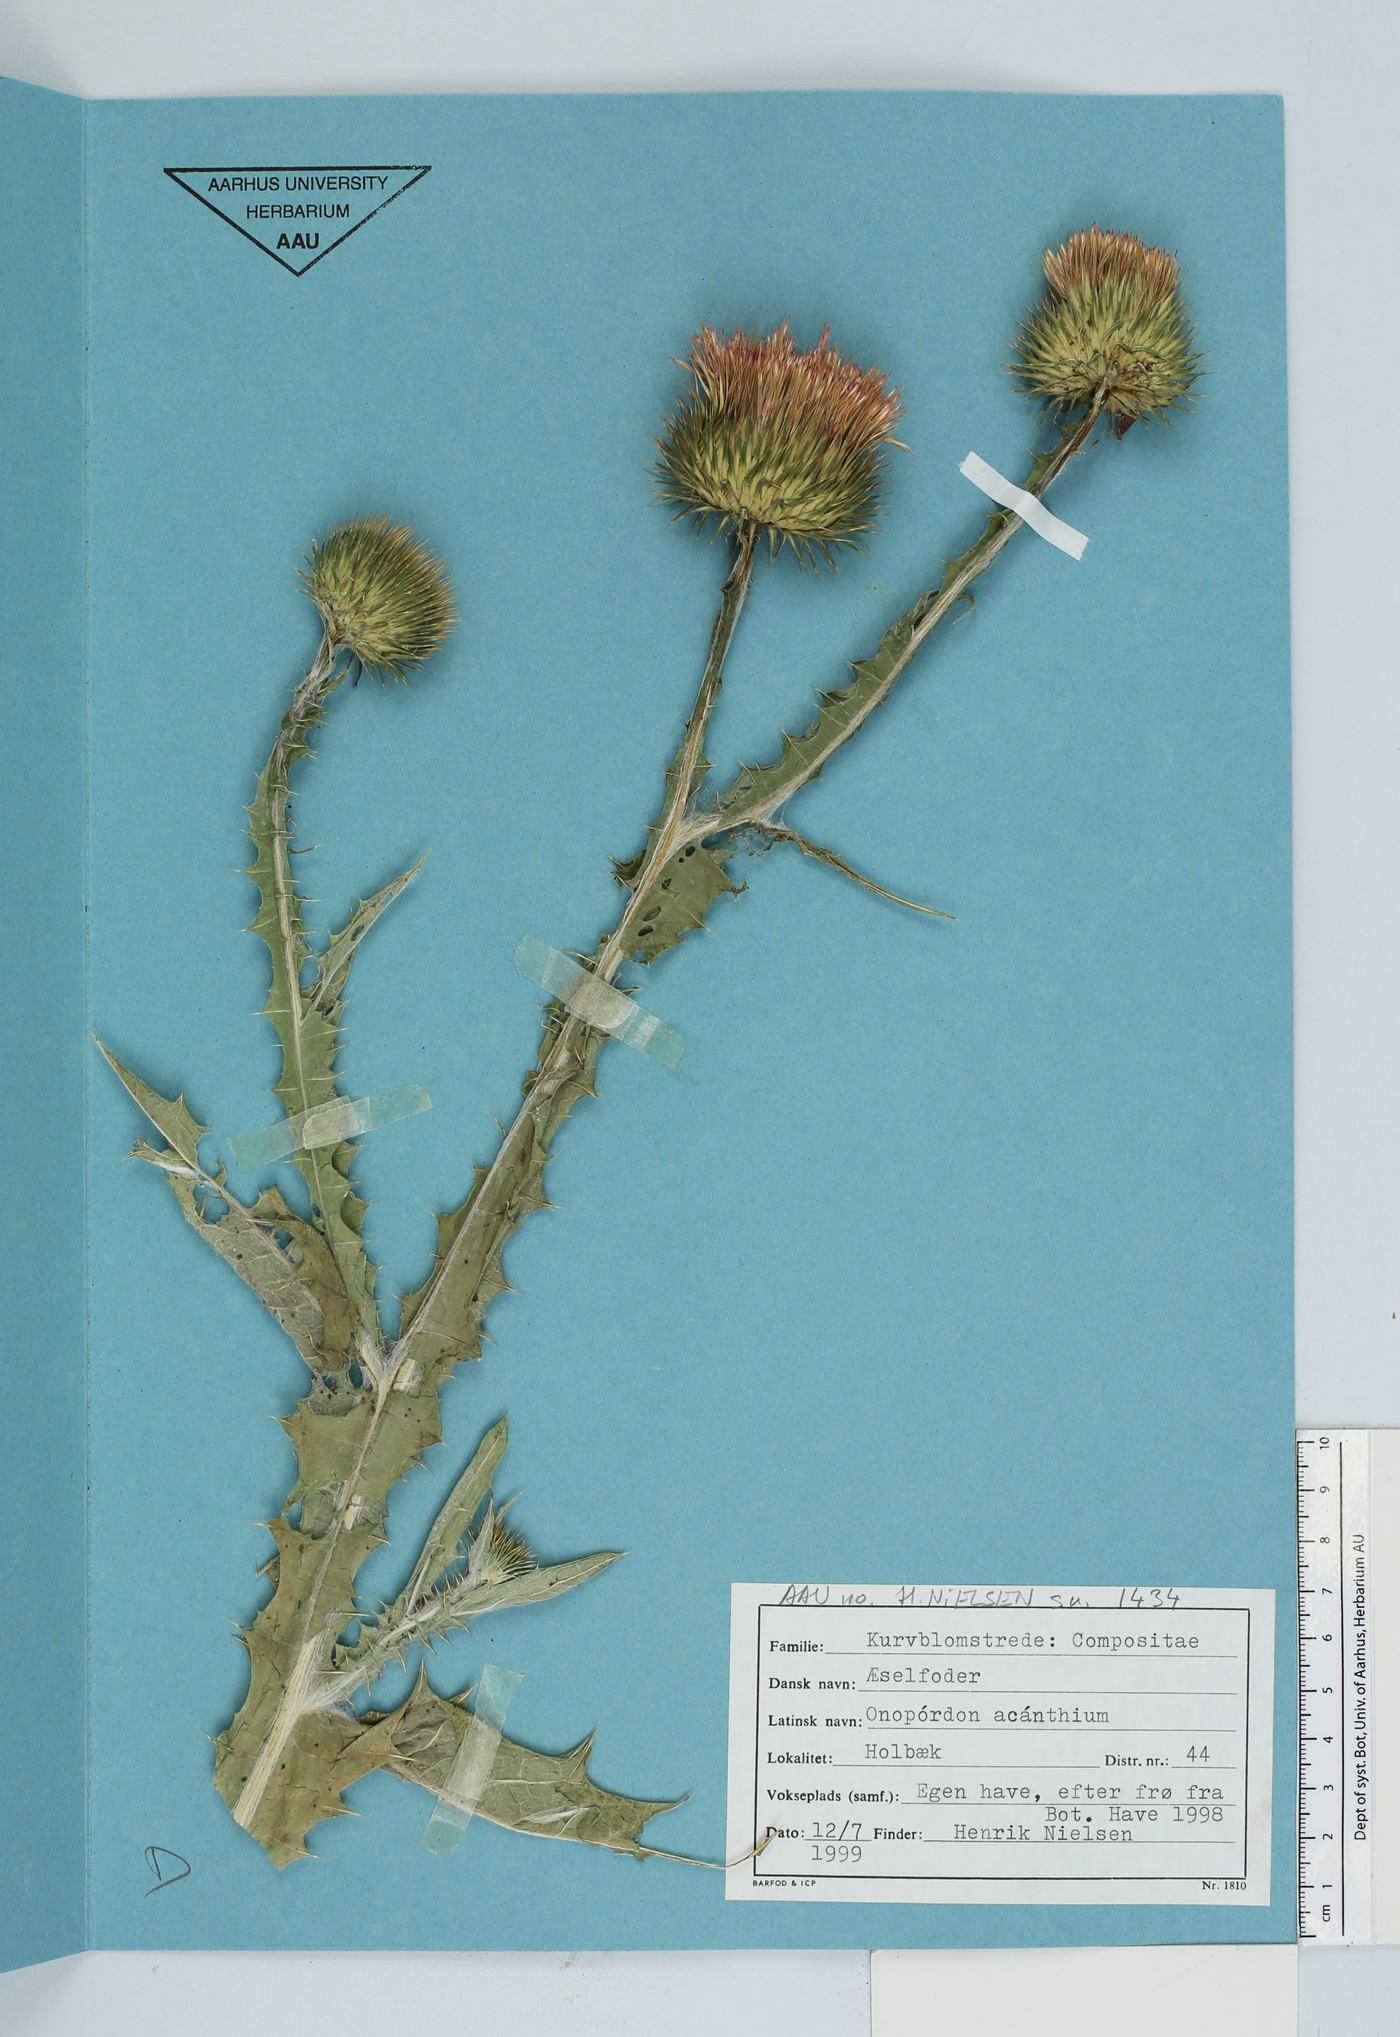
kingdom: Plantae
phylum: Tracheophyta
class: Magnoliopsida
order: Asterales
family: Asteraceae
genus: Onopordum
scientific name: Onopordum acanthium
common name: Scotch thistle
